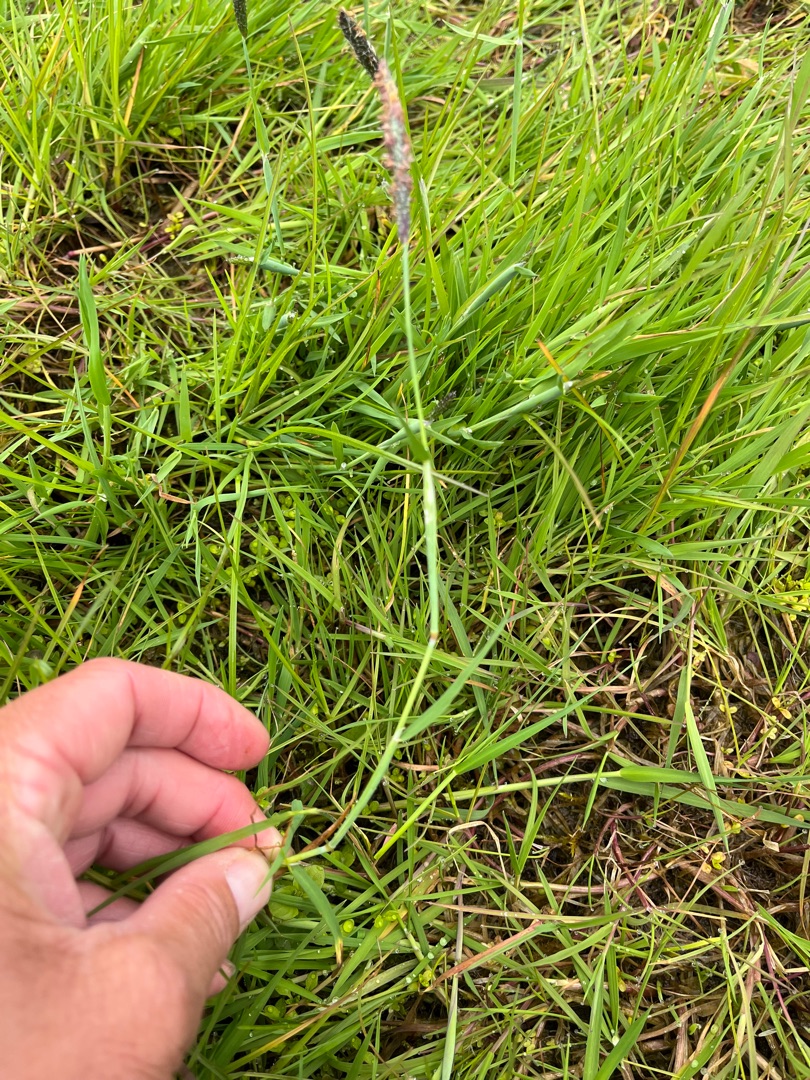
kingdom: Plantae
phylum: Tracheophyta
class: Liliopsida
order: Poales
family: Poaceae
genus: Alopecurus
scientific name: Alopecurus geniculatus
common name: Knæbøjet rævehale
